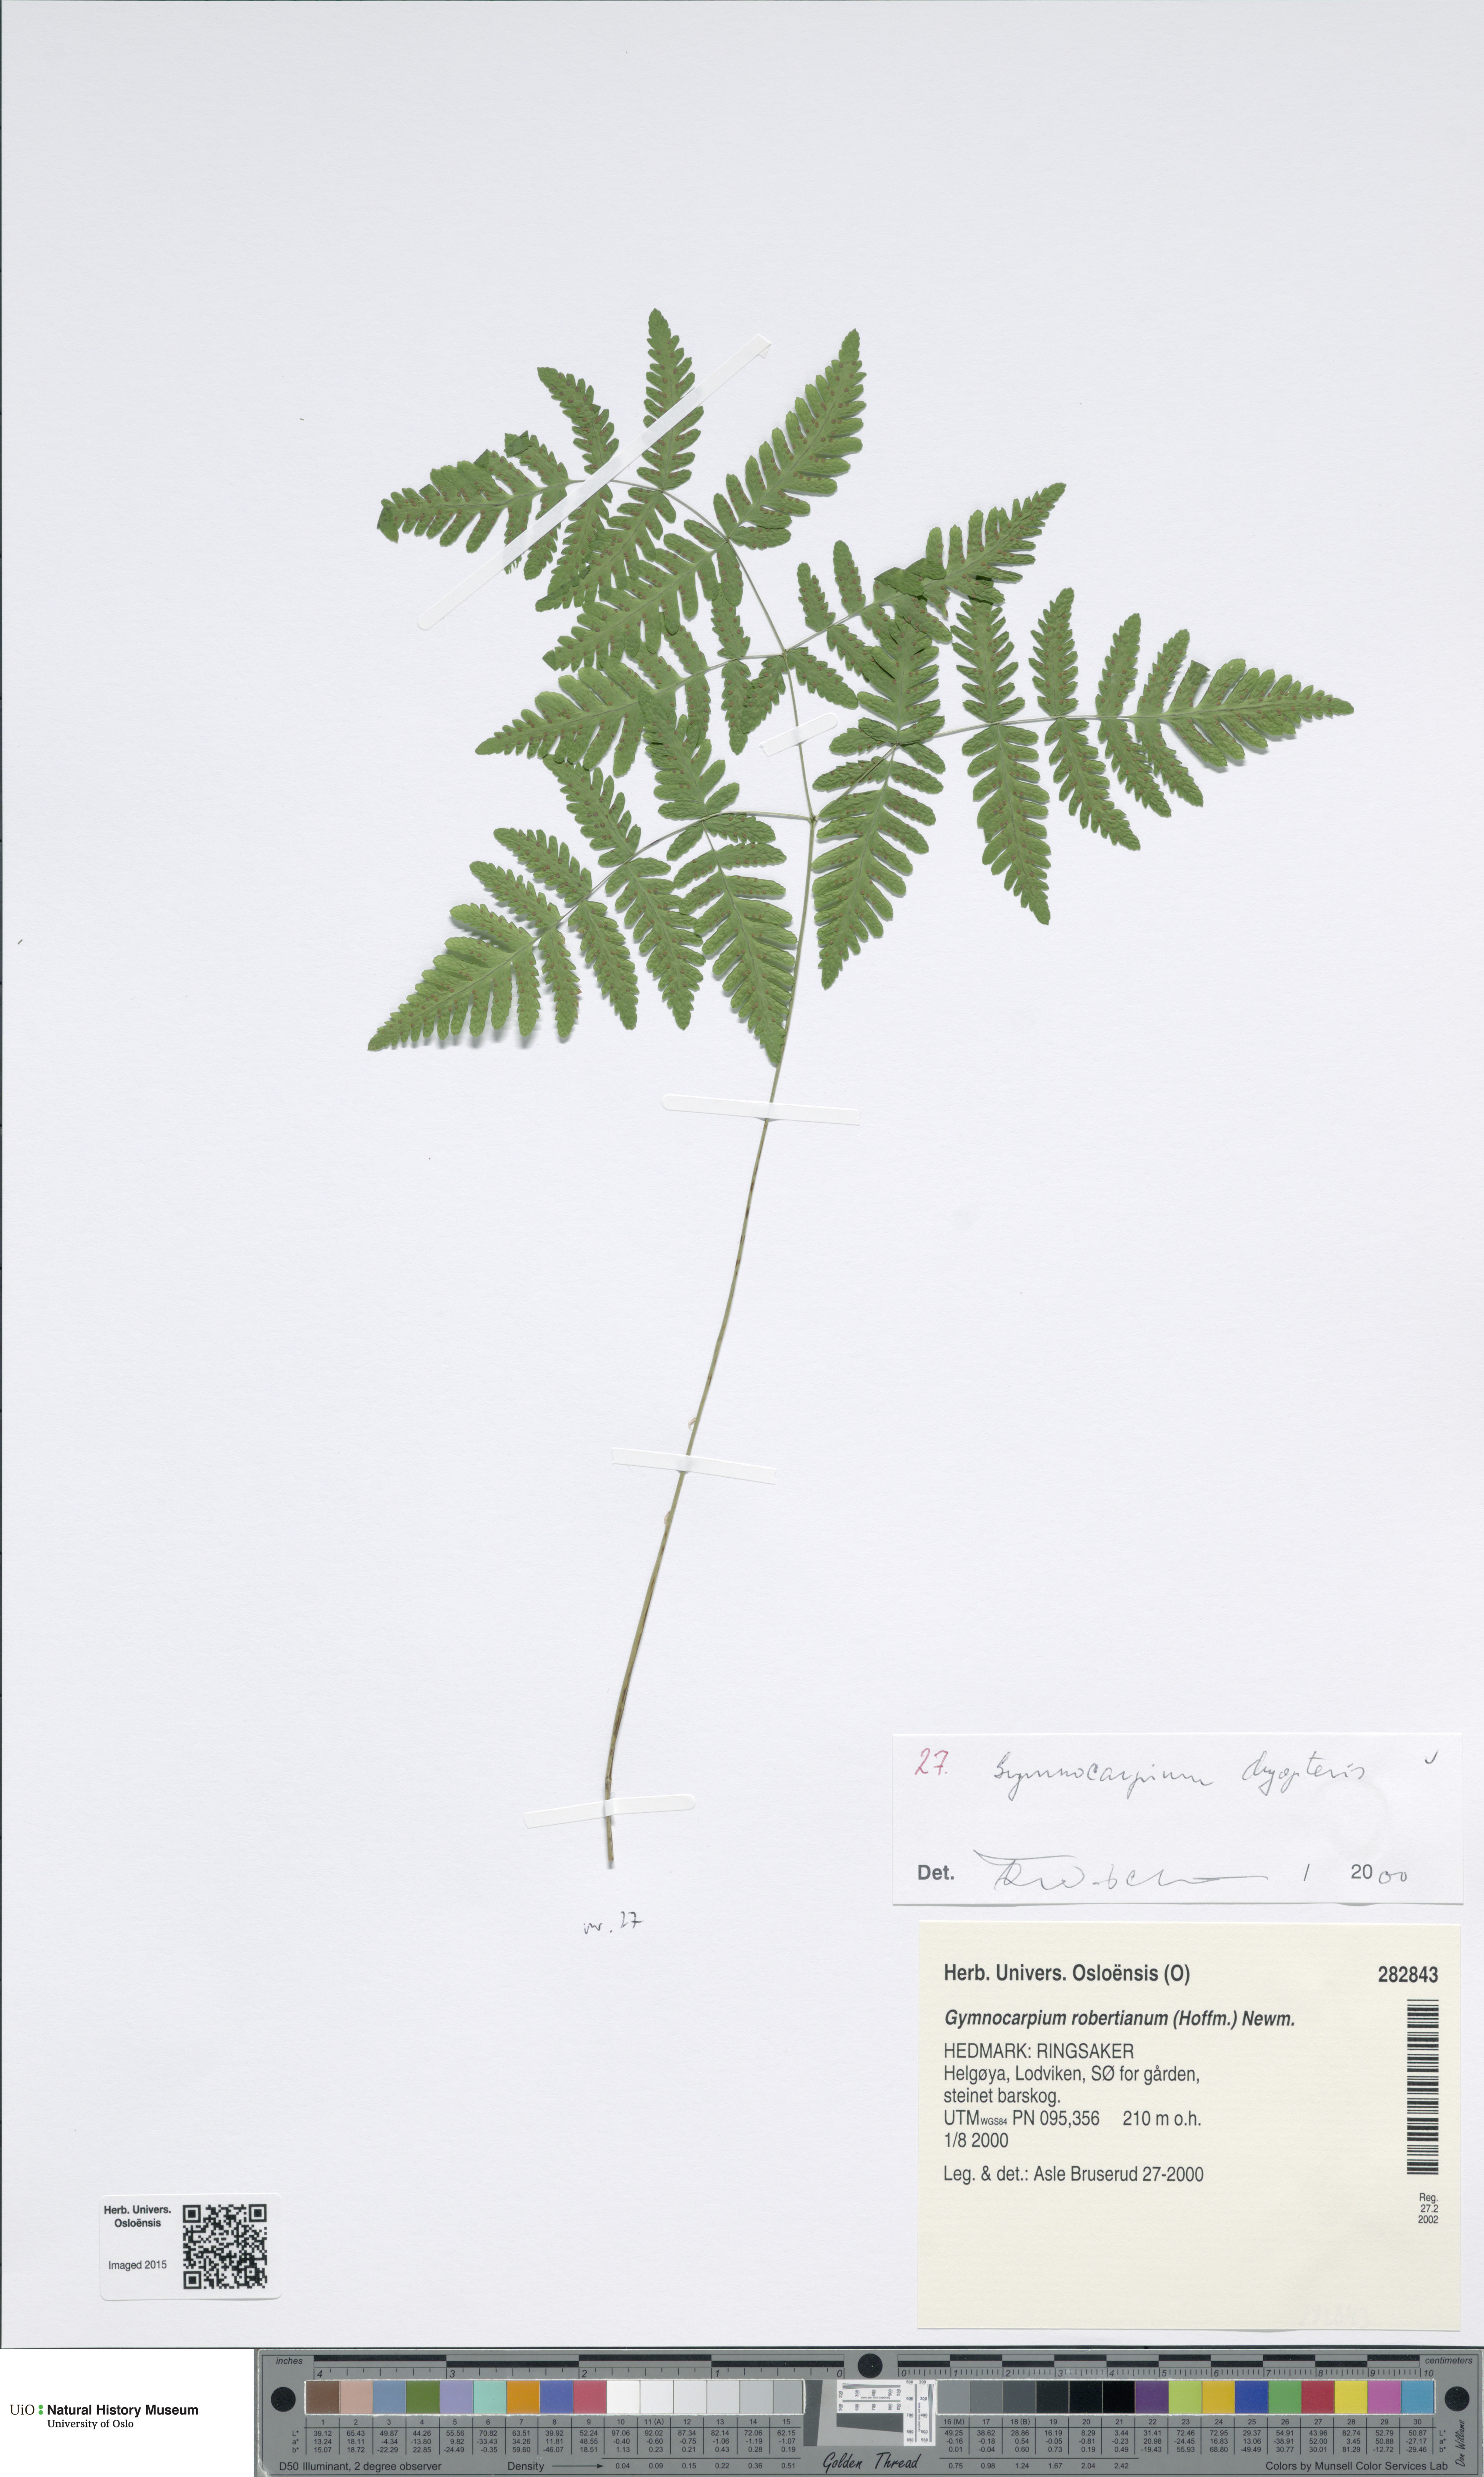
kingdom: Plantae
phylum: Tracheophyta
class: Polypodiopsida
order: Polypodiales
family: Cystopteridaceae
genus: Gymnocarpium
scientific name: Gymnocarpium dryopteris
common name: Oak fern
